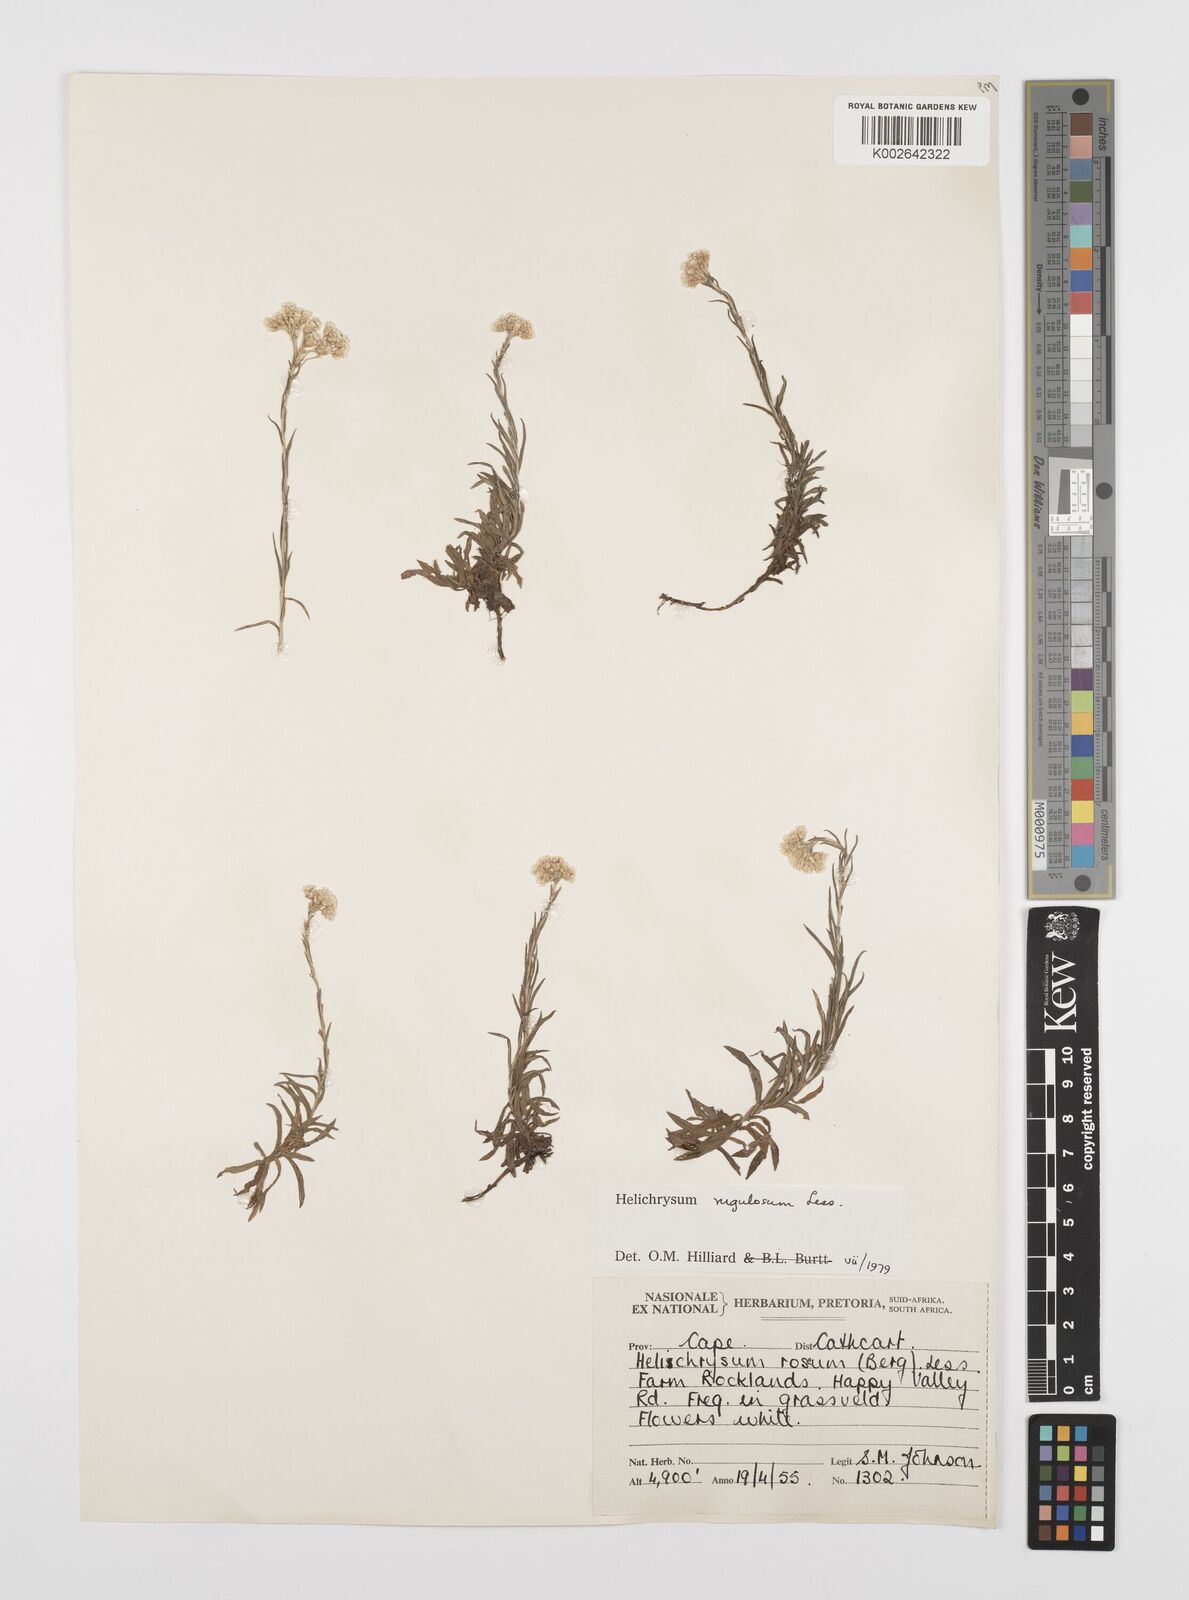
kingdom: Plantae
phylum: Tracheophyta
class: Magnoliopsida
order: Asterales
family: Asteraceae
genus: Helichrysum
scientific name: Helichrysum rugulosum
